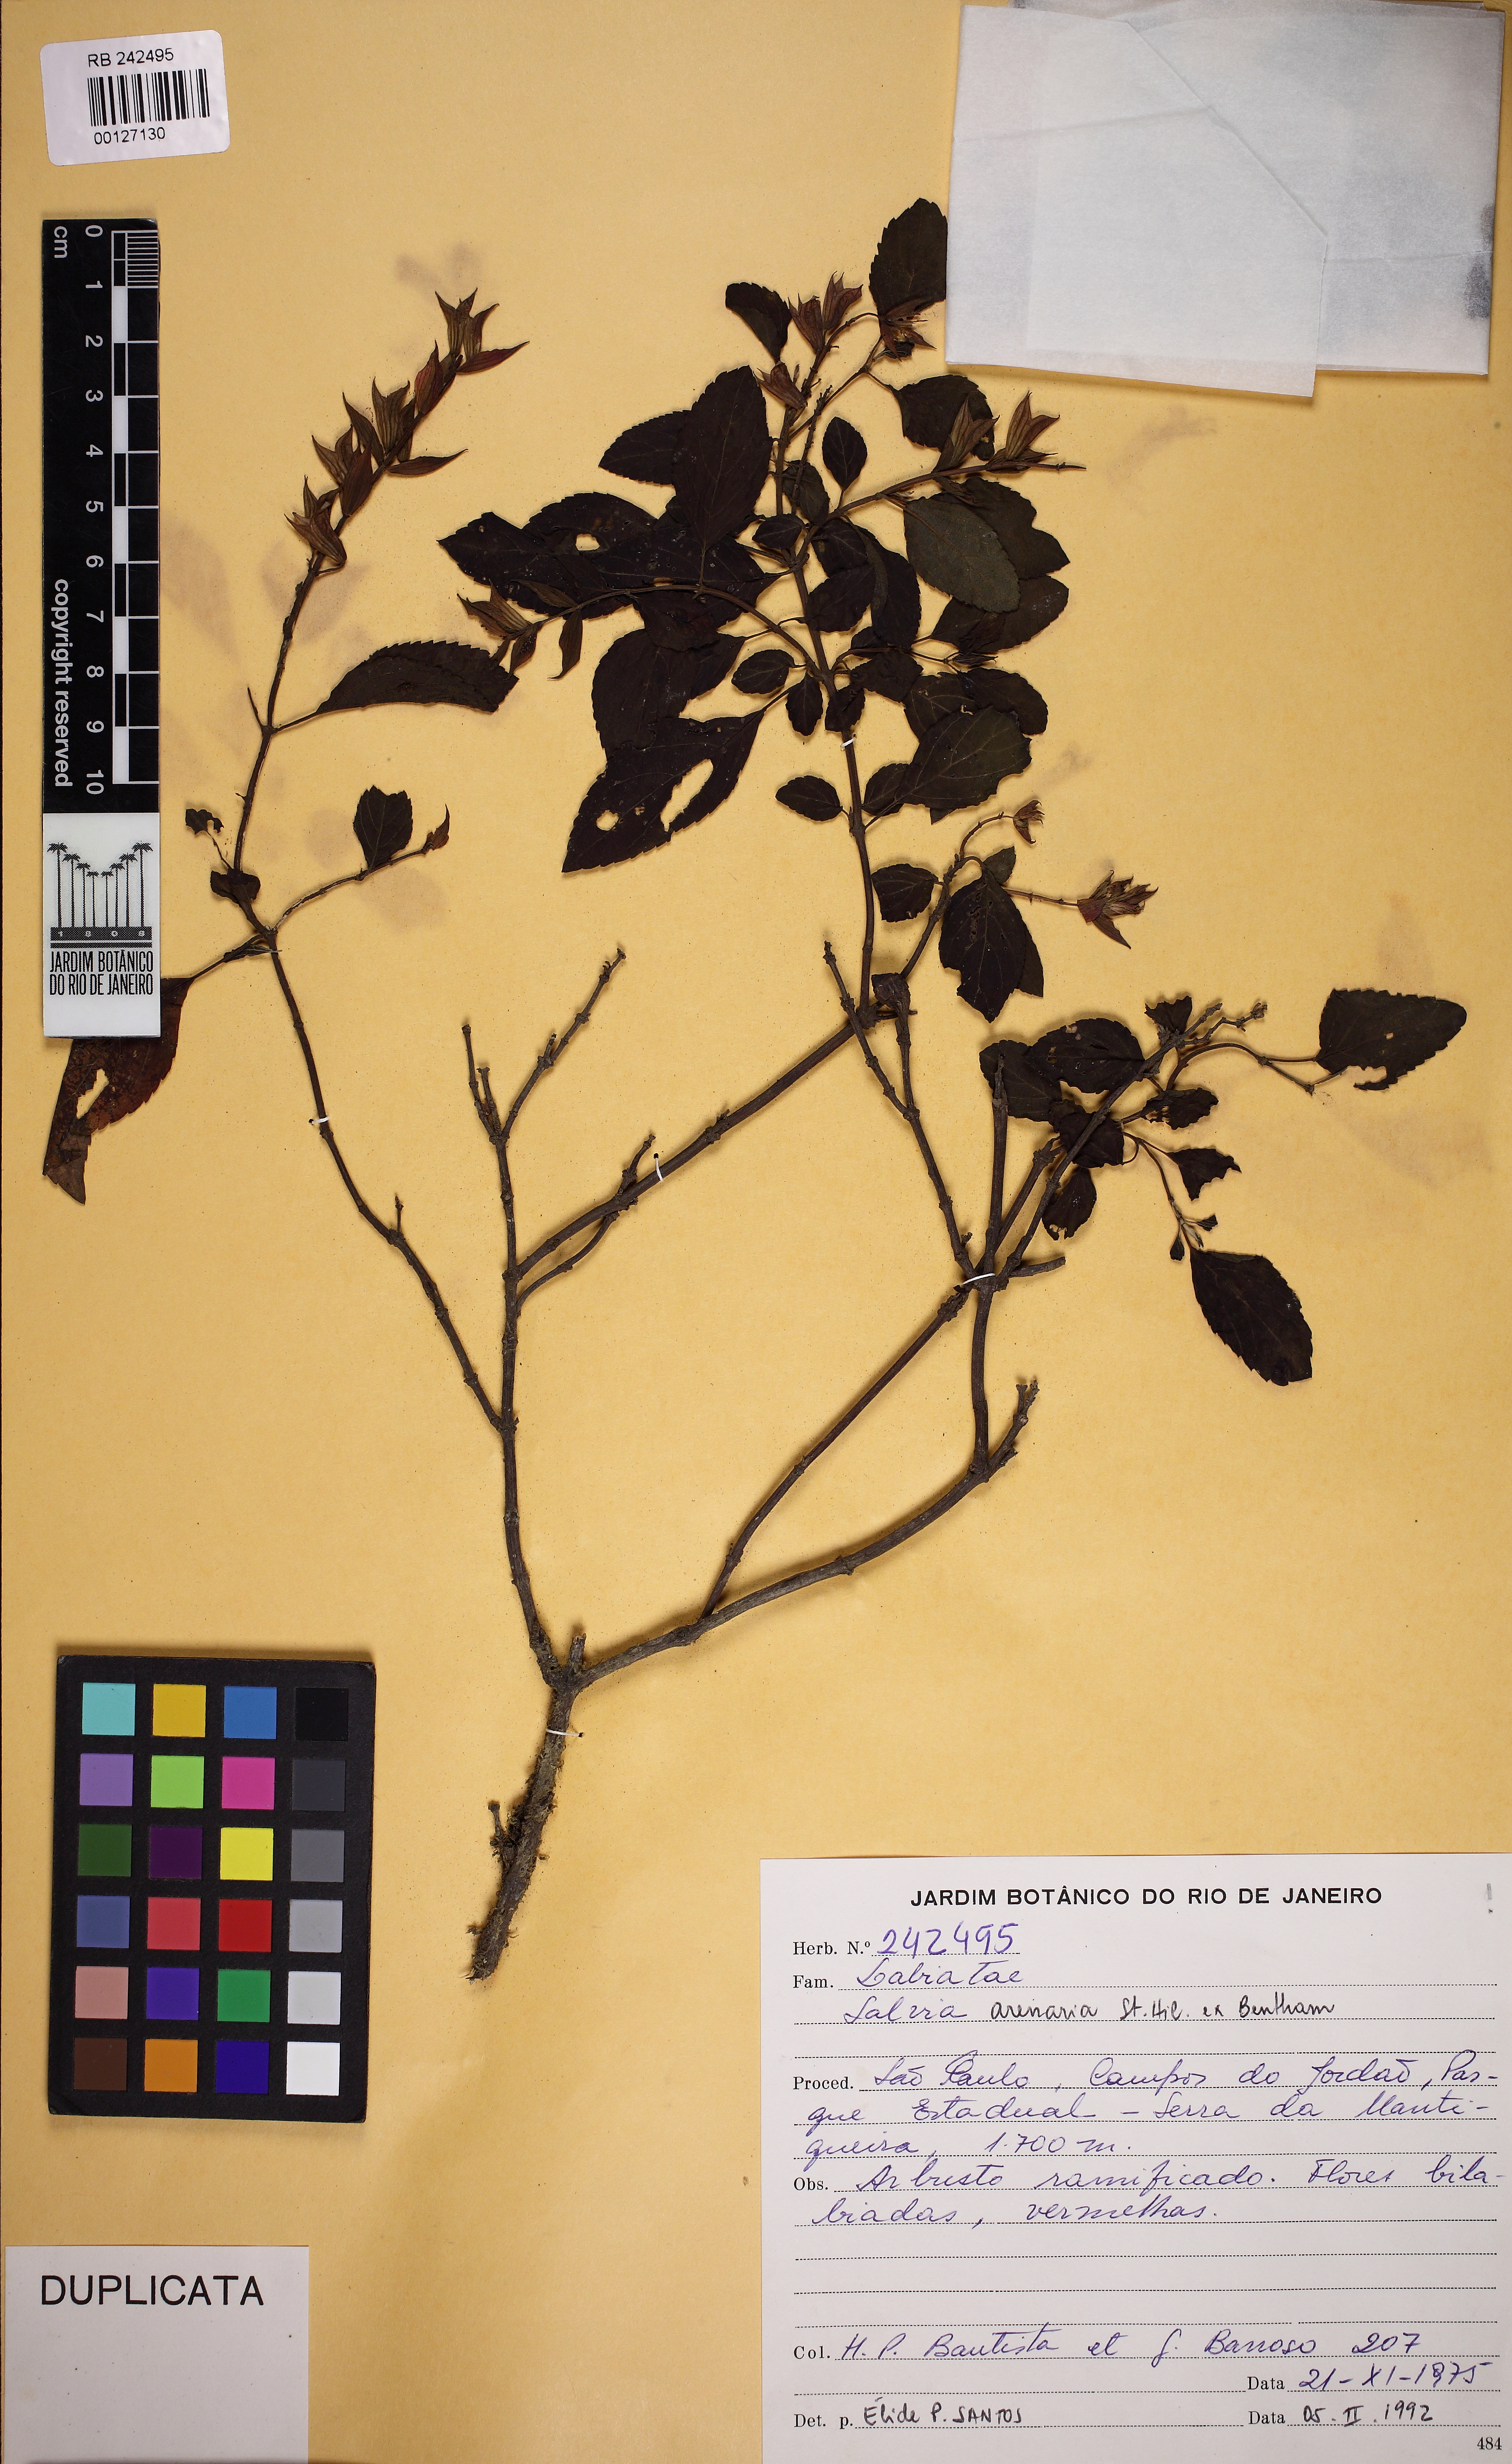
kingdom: Plantae
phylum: Tracheophyta
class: Magnoliopsida
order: Lamiales
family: Lamiaceae
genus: Salvia
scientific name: Salvia arenaria
